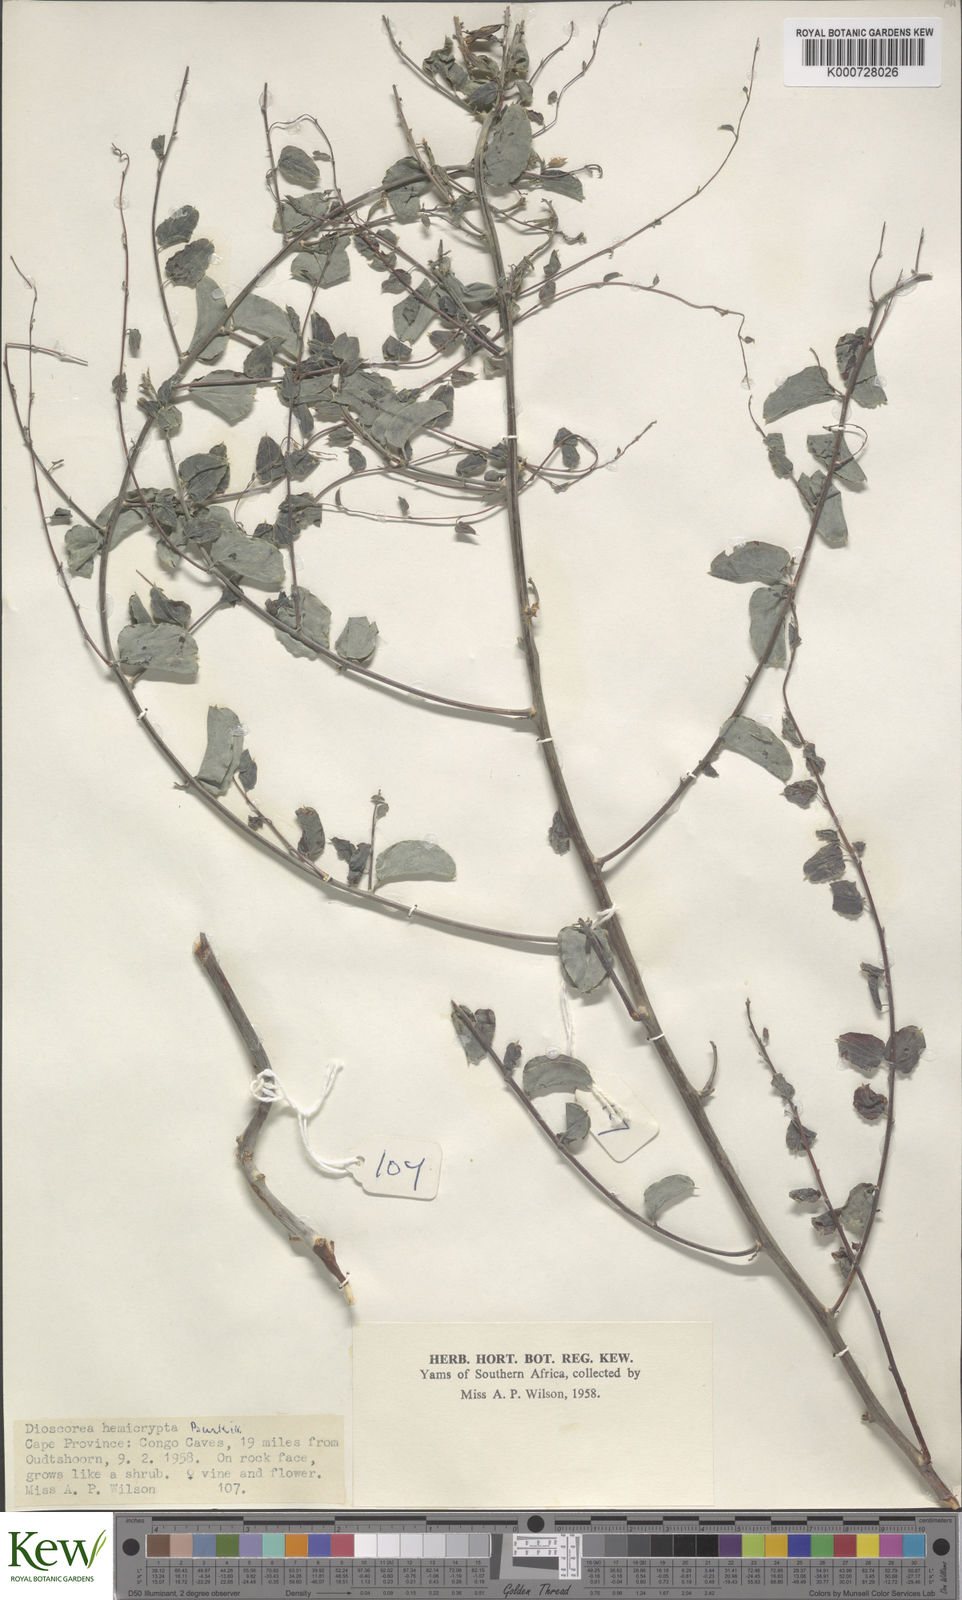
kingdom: Plantae
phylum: Tracheophyta
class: Liliopsida
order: Dioscoreales
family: Dioscoreaceae
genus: Dioscorea
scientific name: Dioscorea hemicrypta
